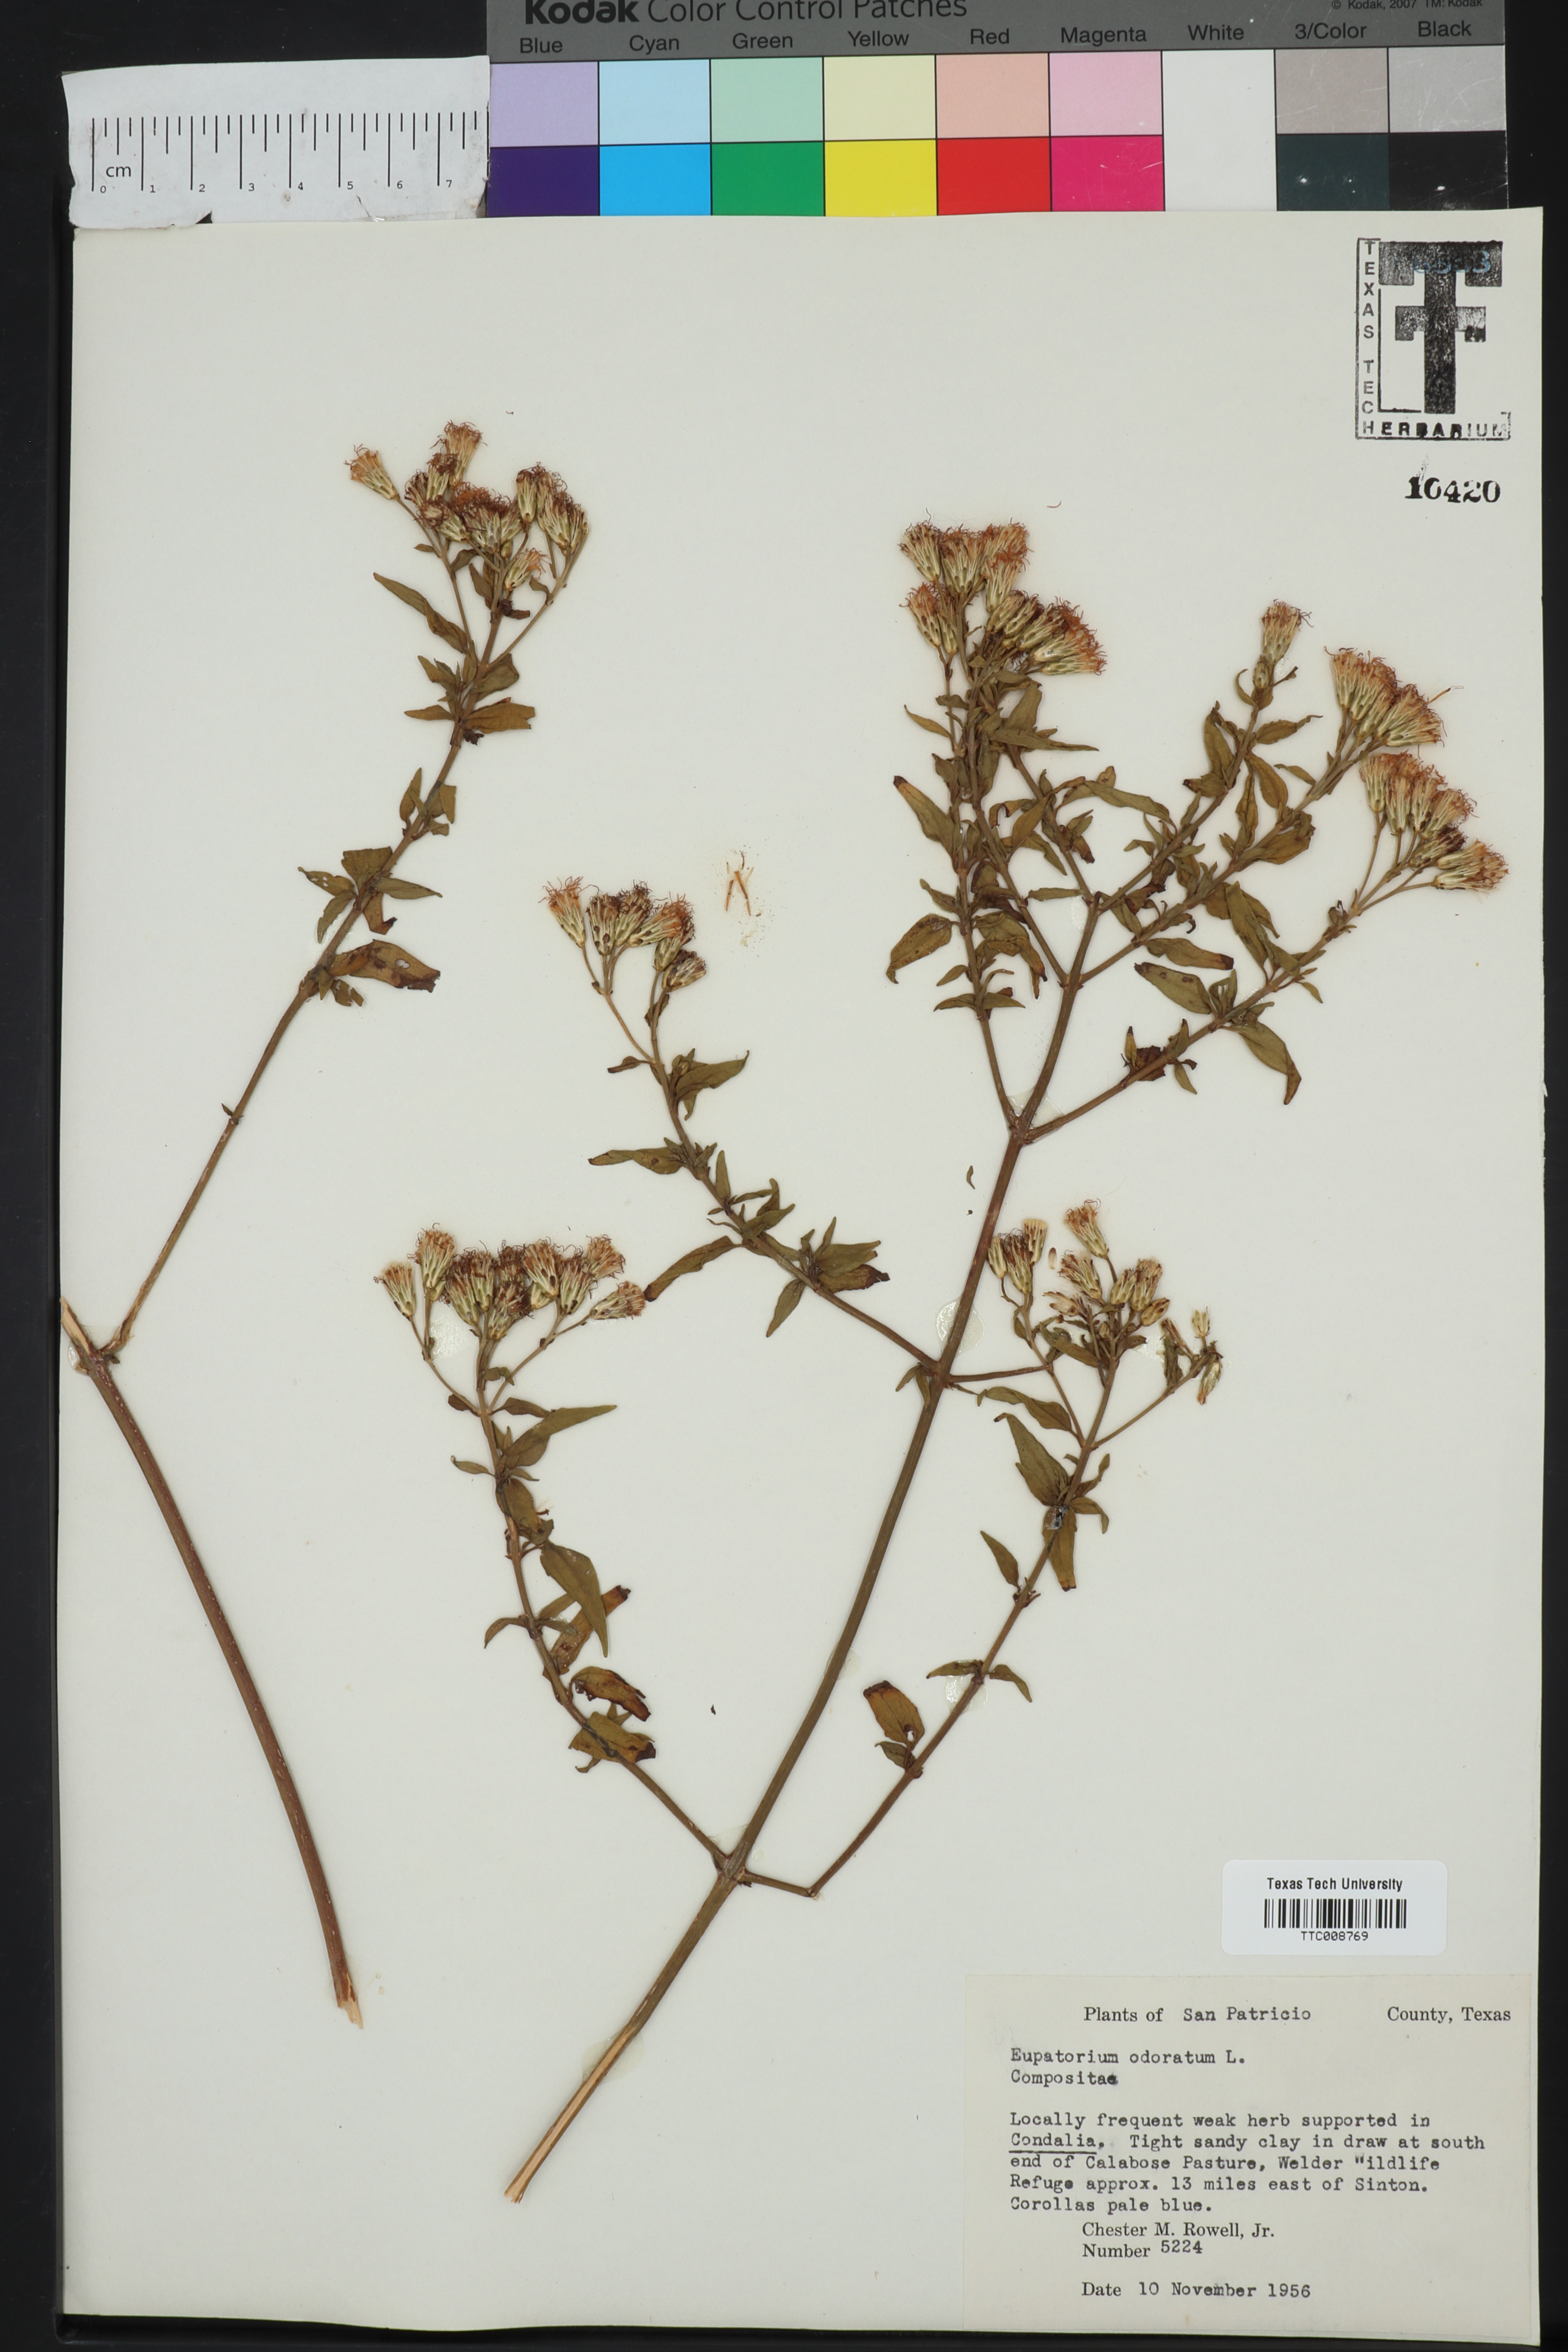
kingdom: Plantae
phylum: Tracheophyta
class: Magnoliopsida
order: Asterales
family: Asteraceae
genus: Ageratina
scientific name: Ageratina altissima
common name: White snakeroot
